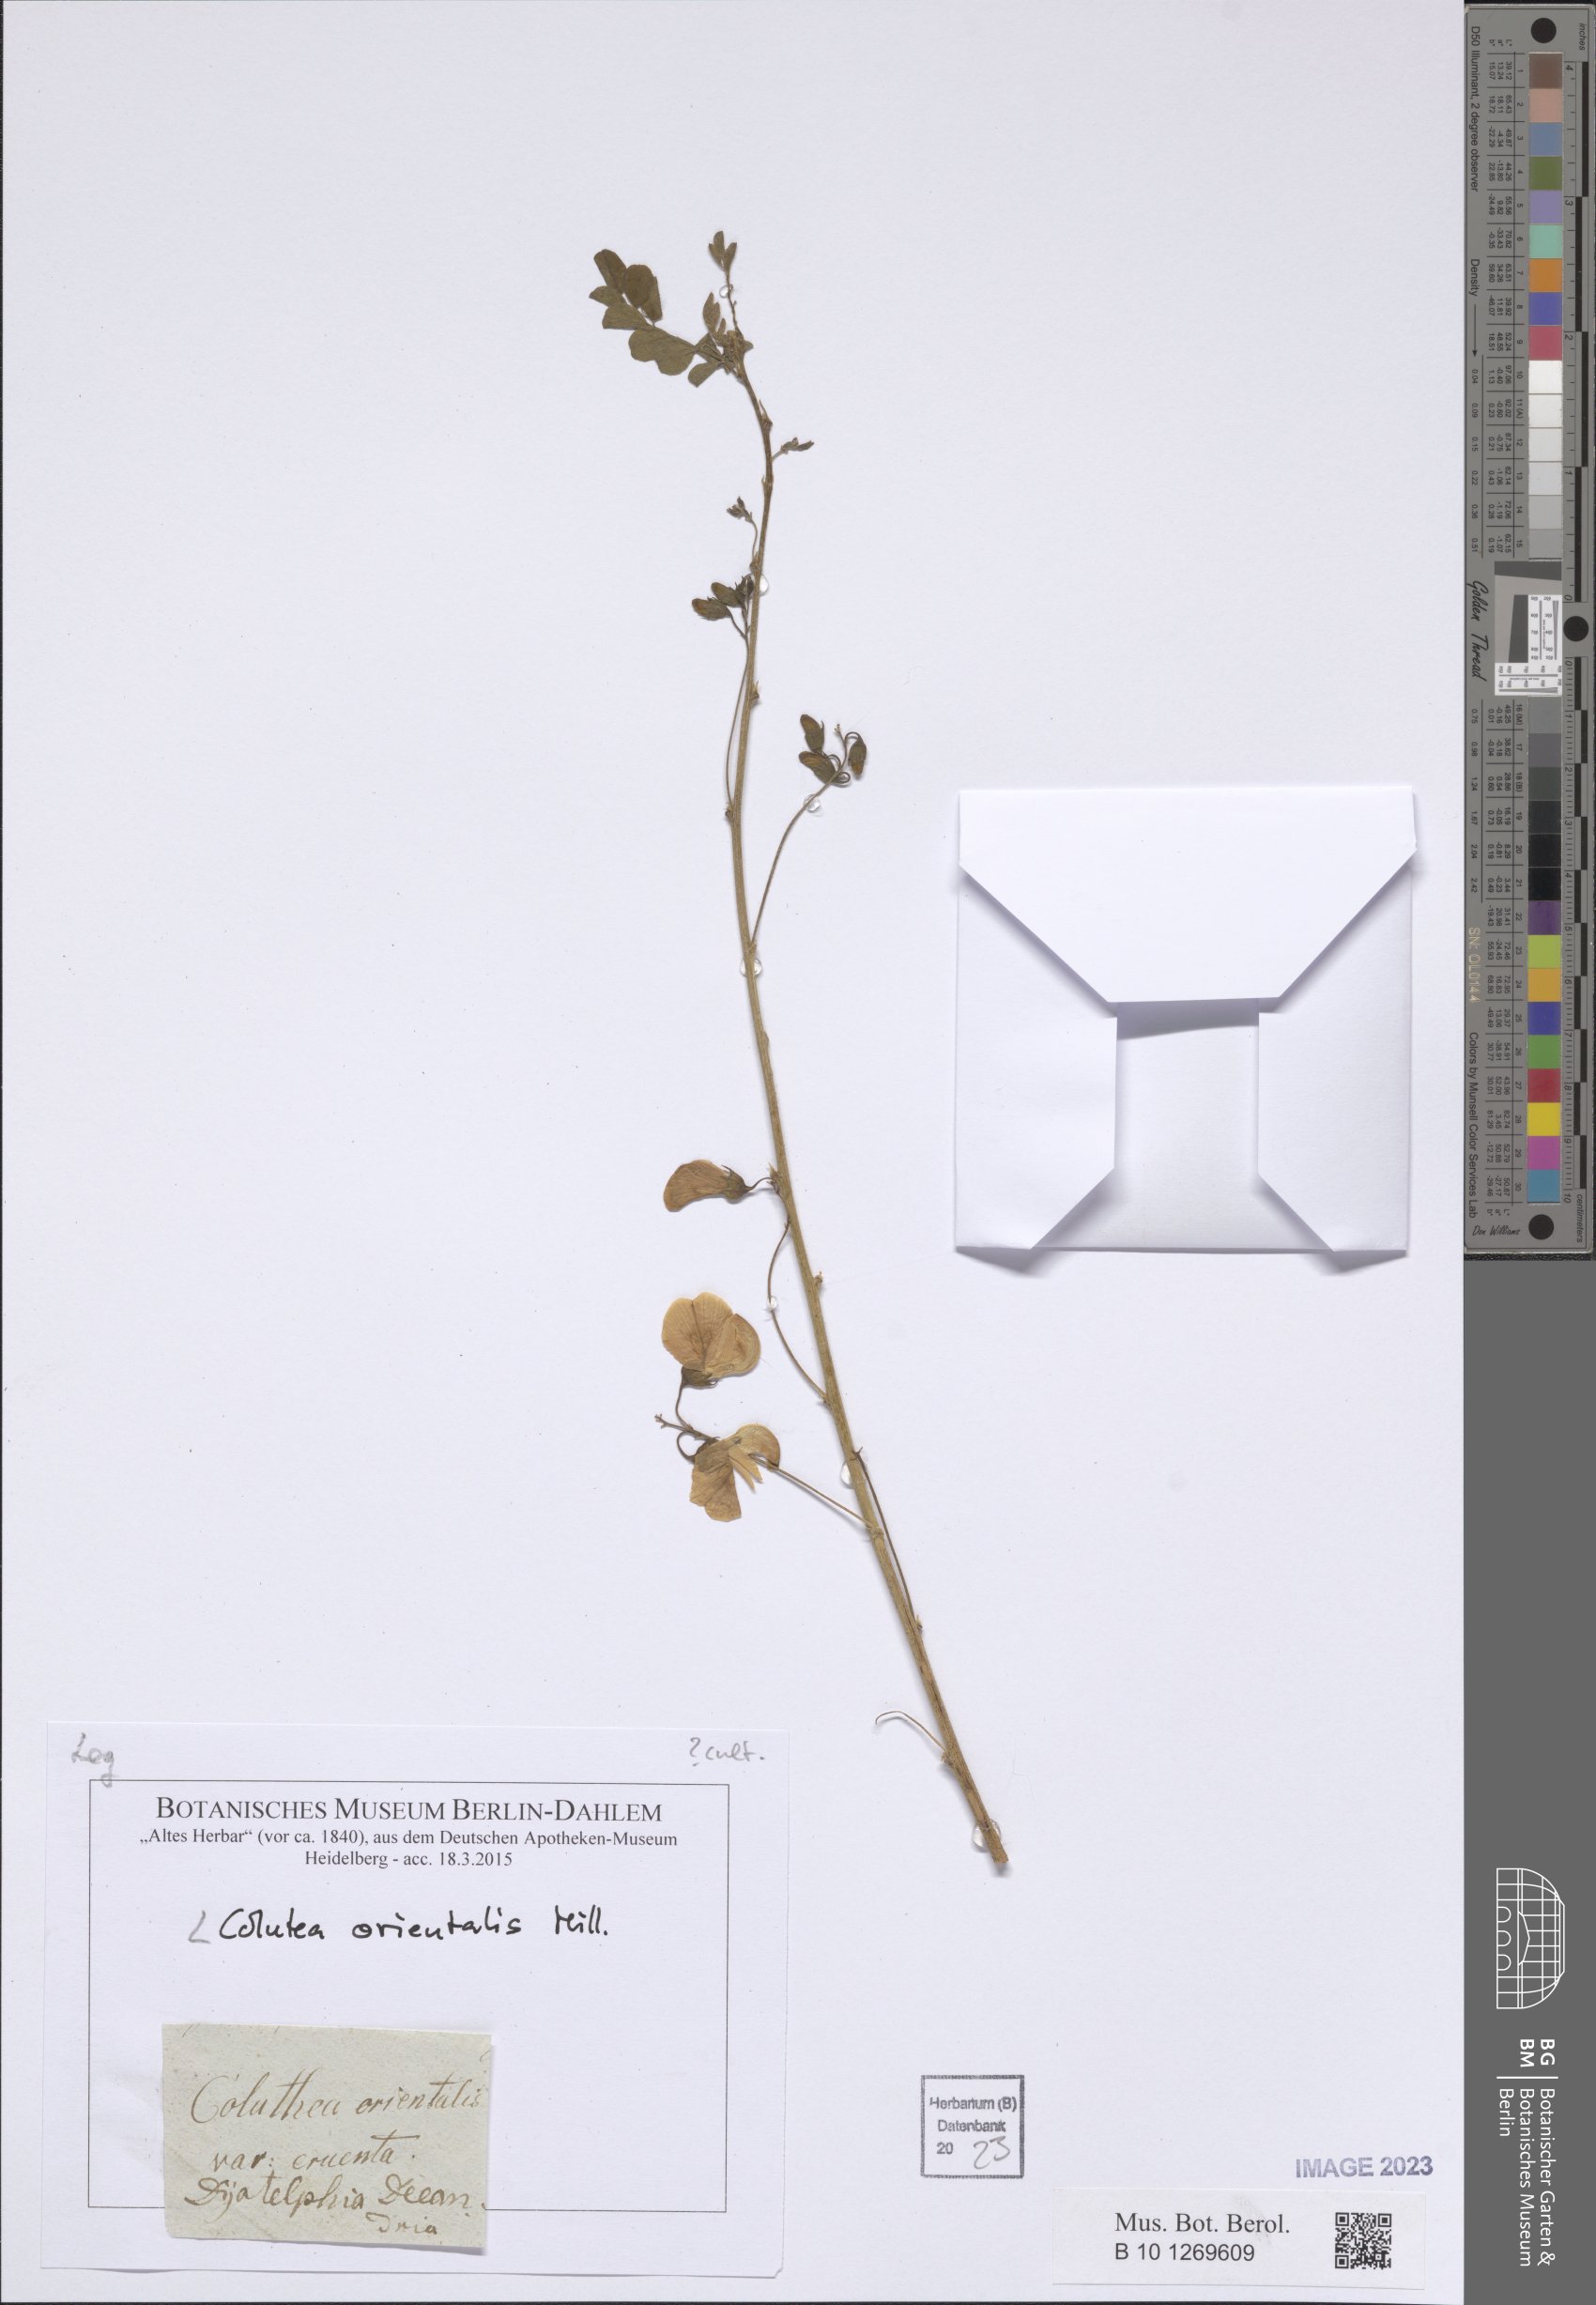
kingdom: Plantae
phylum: Tracheophyta
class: Magnoliopsida
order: Fabales
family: Fabaceae
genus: Colutea
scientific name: Colutea orientalis
